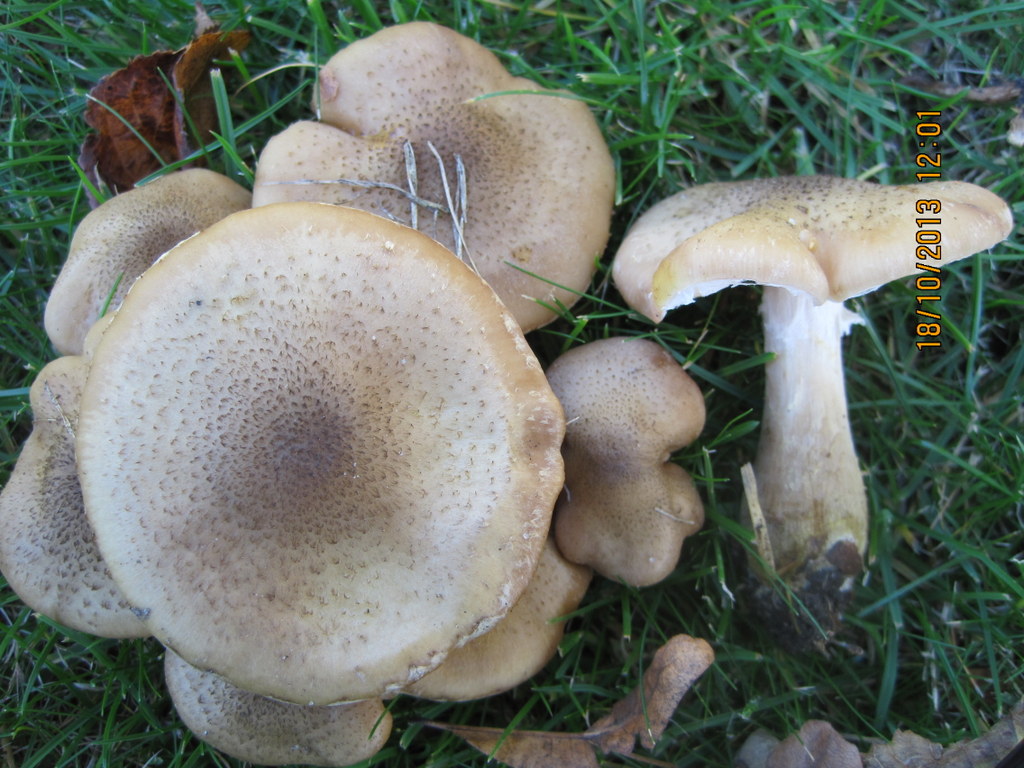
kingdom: Fungi
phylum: Basidiomycota
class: Agaricomycetes
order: Agaricales
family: Physalacriaceae
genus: Armillaria
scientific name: Armillaria lutea
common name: køllestokket honningsvamp
